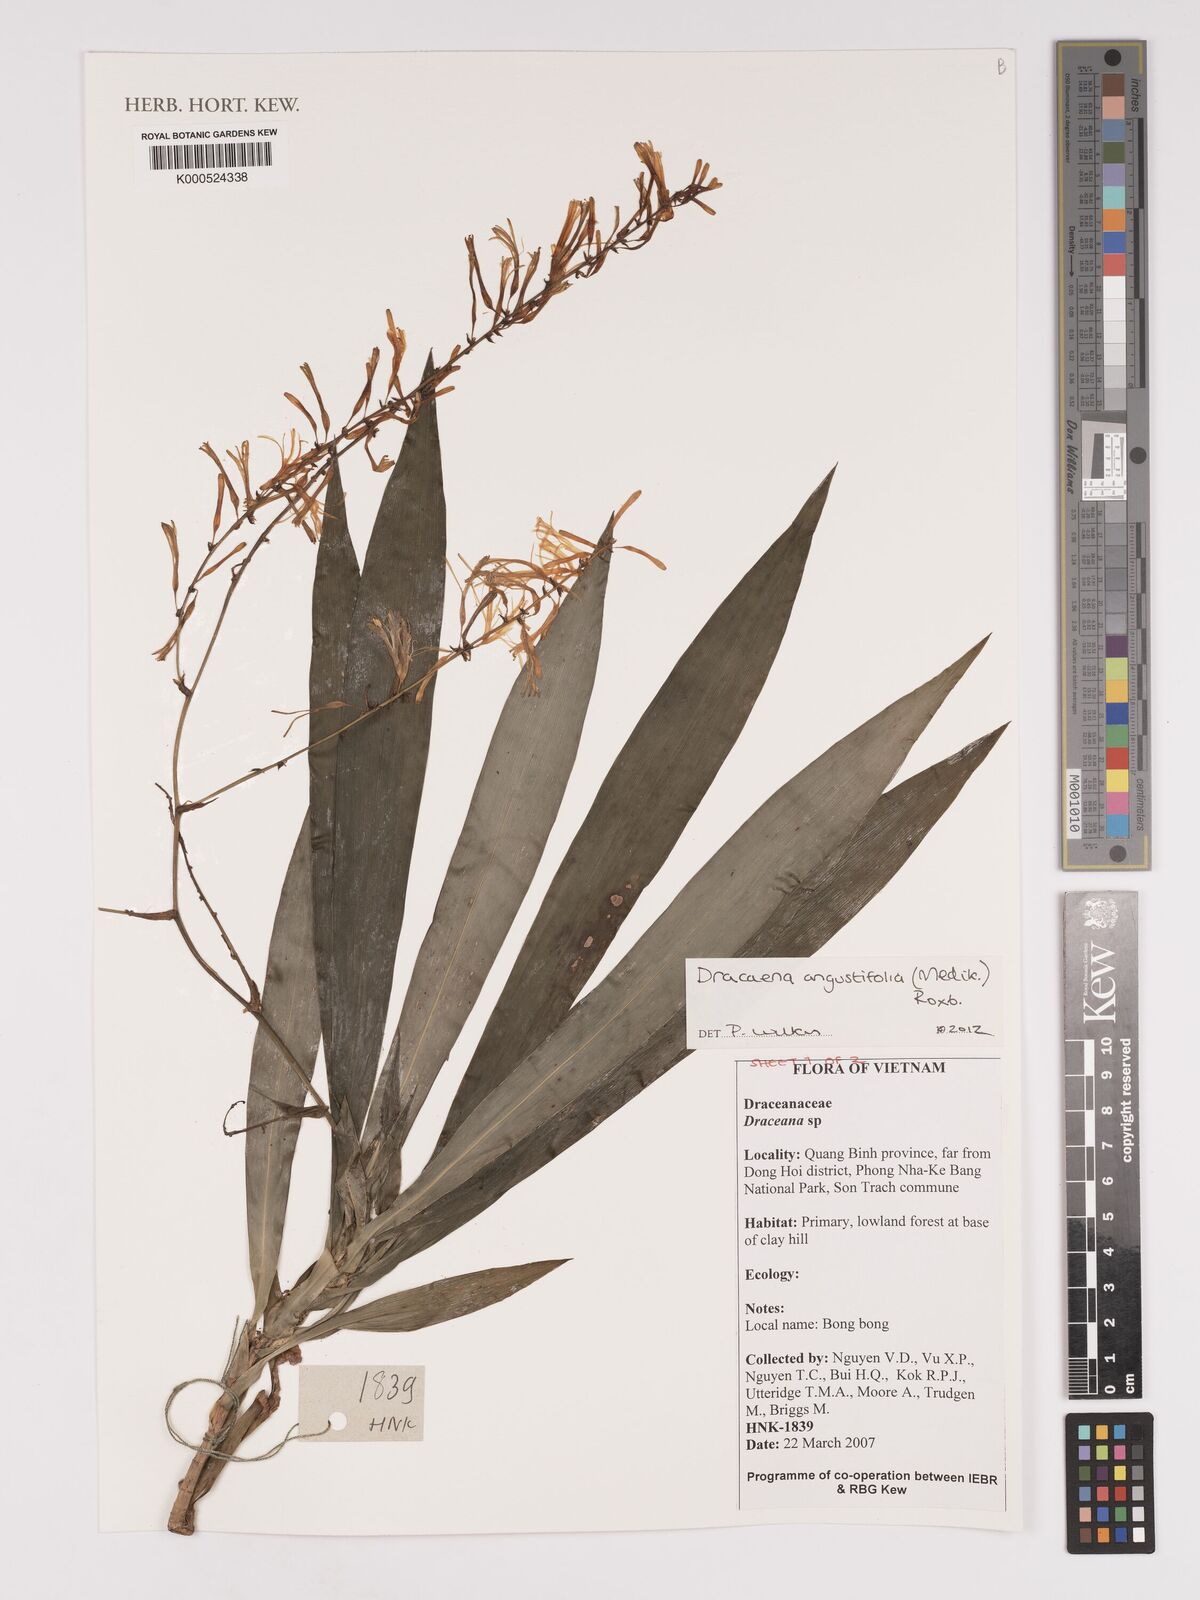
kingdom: Plantae
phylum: Tracheophyta
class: Liliopsida
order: Asparagales
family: Asparagaceae
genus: Dracaena
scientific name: Dracaena angustifolia
